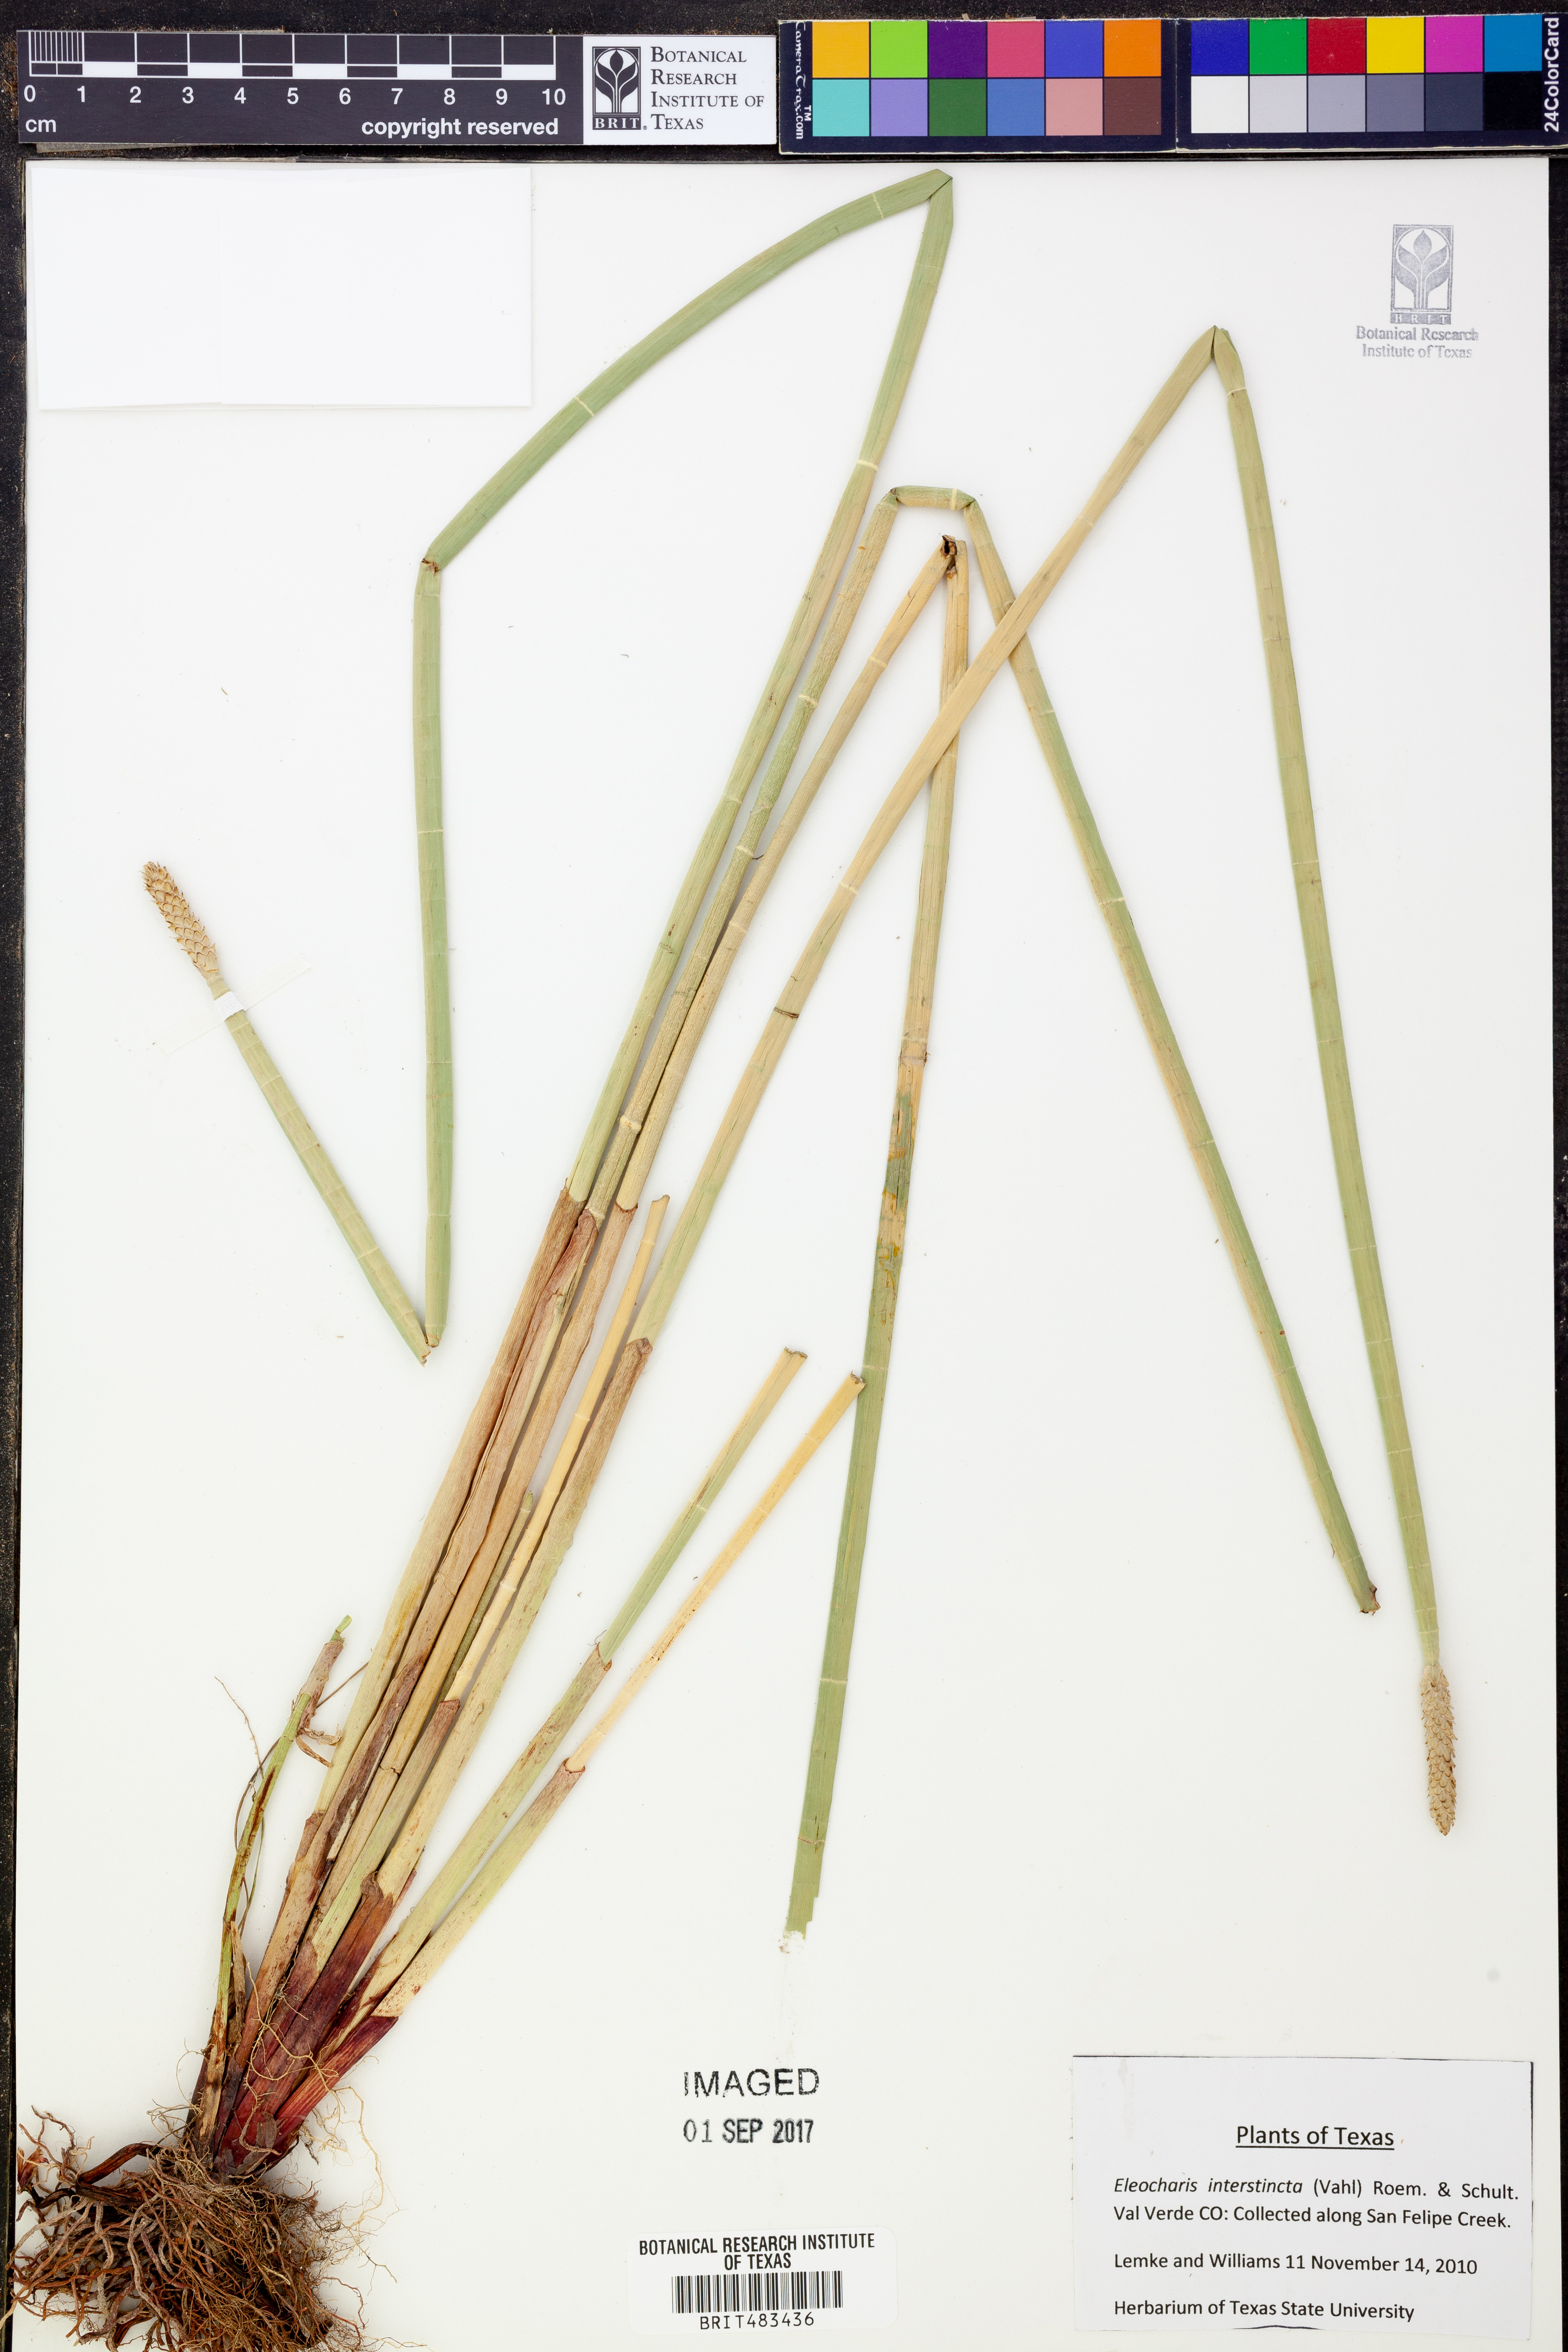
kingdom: Plantae
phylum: Tracheophyta
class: Liliopsida
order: Poales
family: Cyperaceae
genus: Eleocharis
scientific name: Eleocharis interstincta
